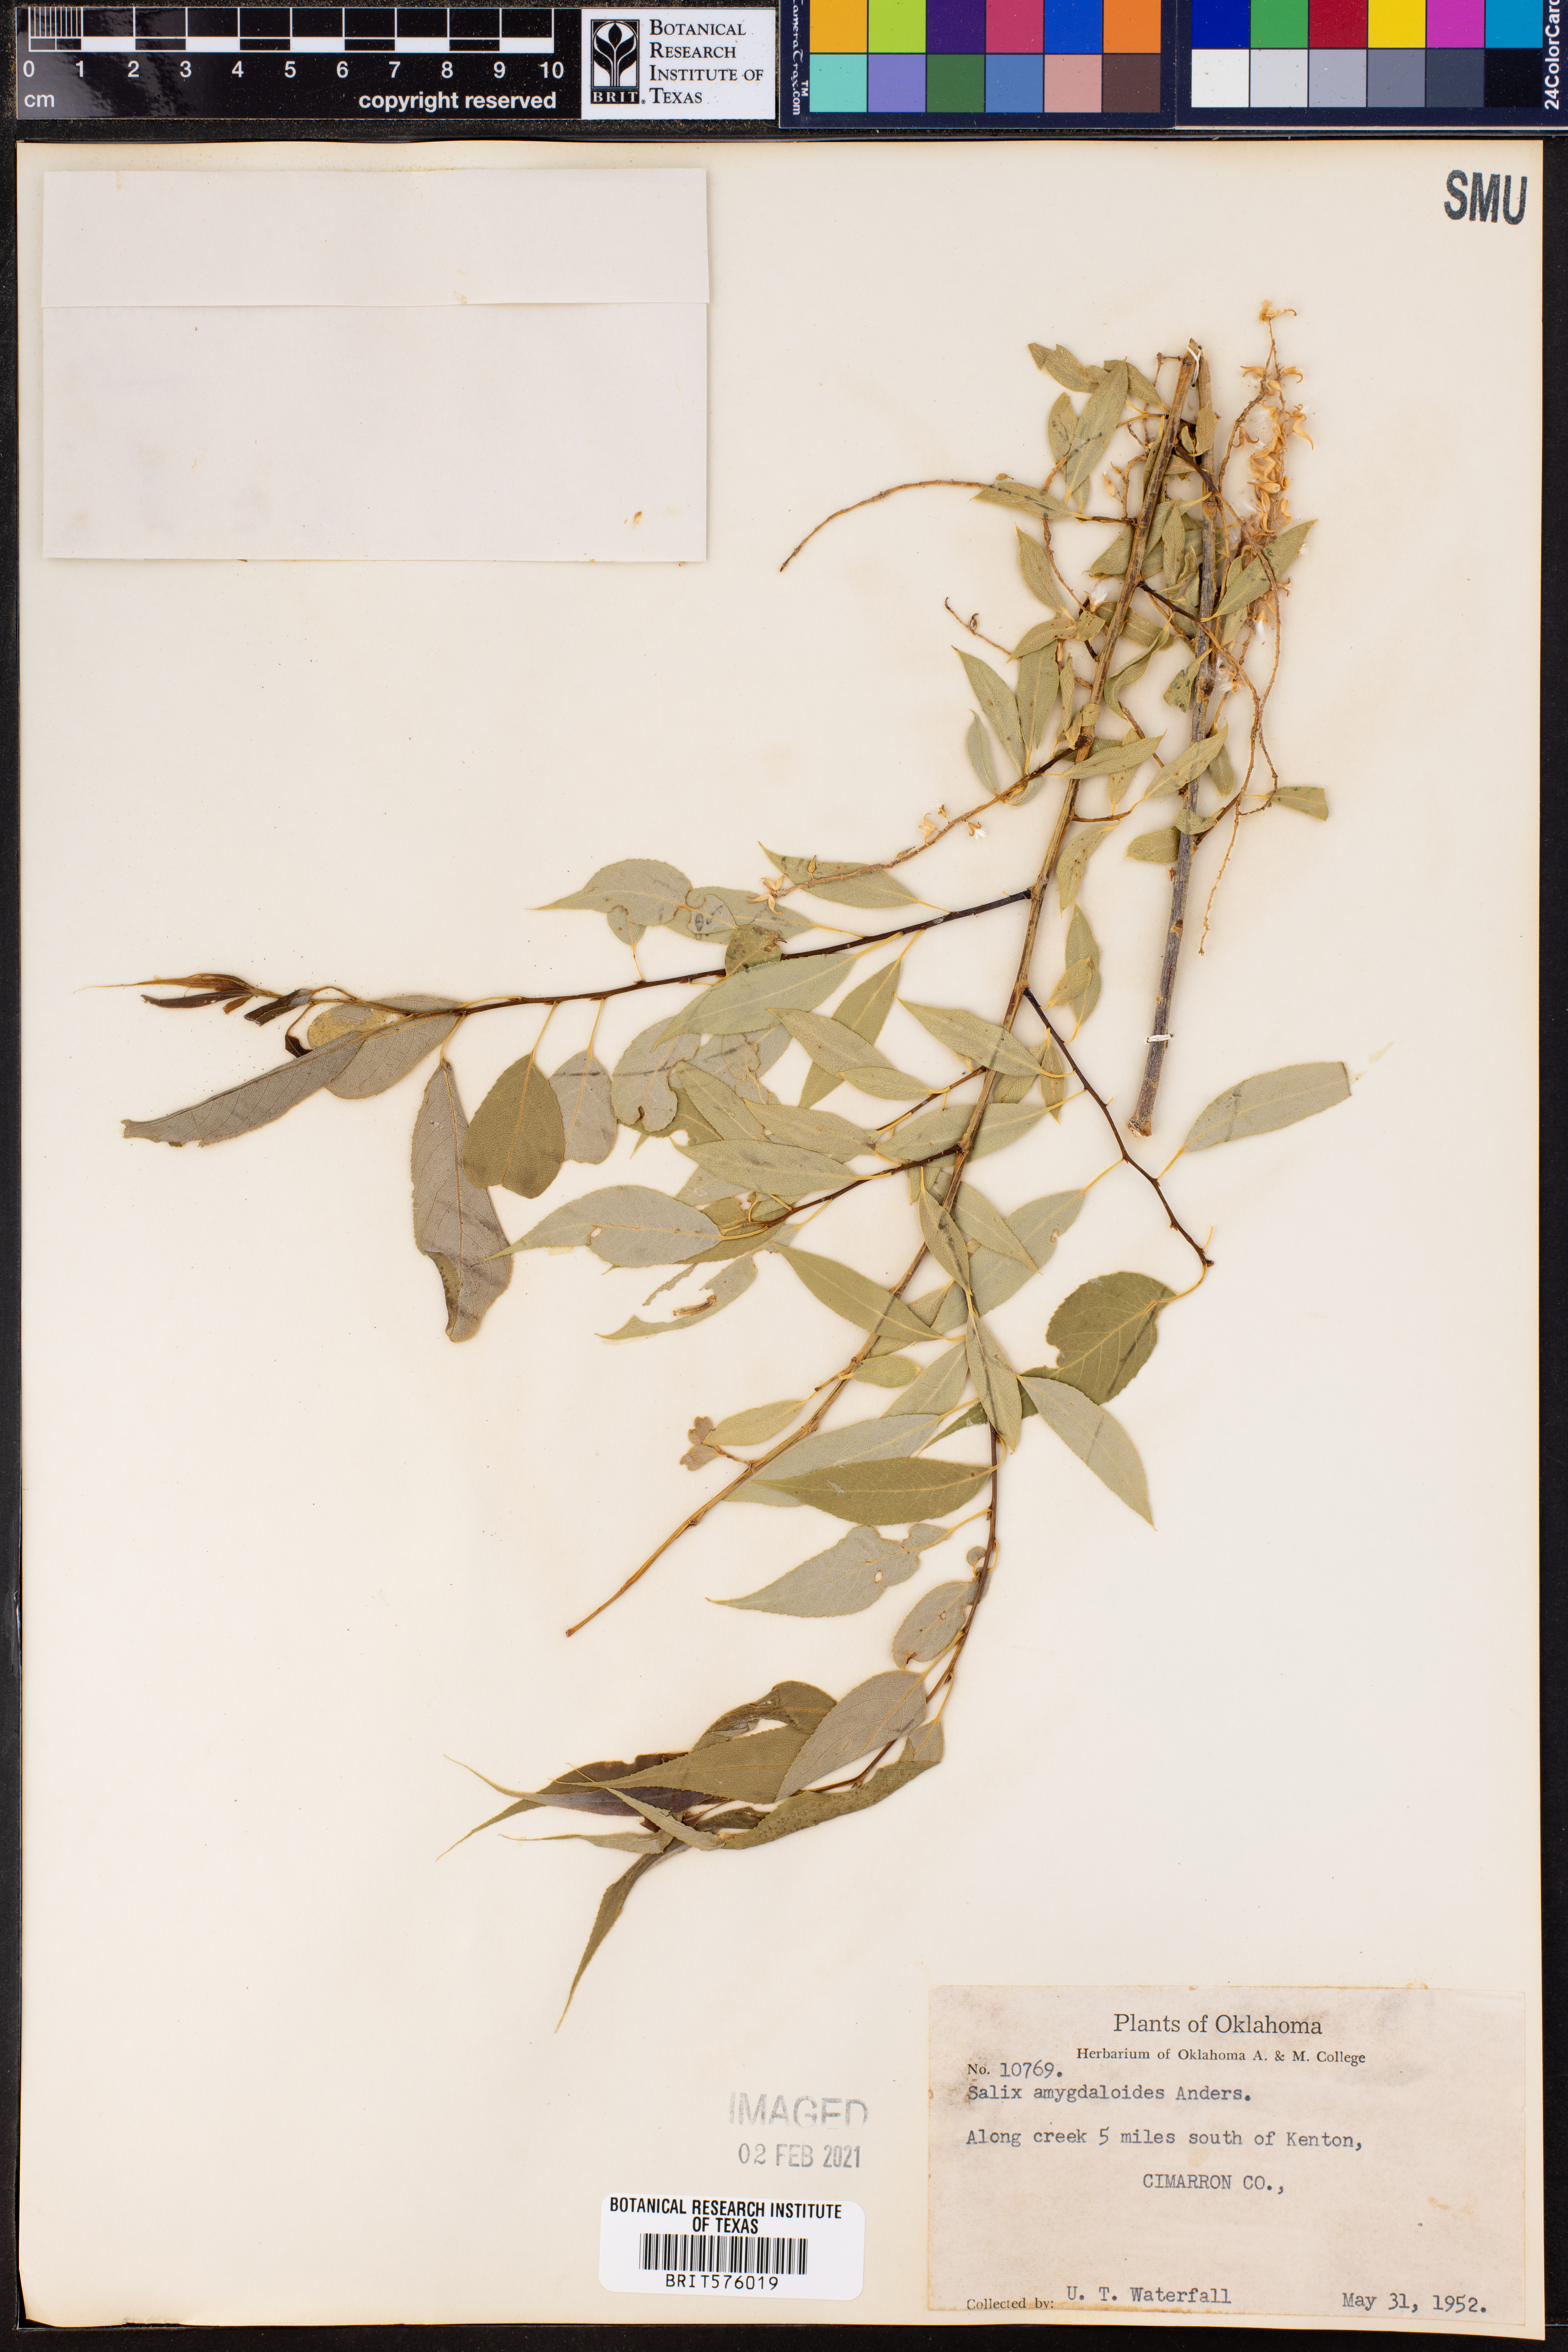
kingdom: Plantae
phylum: Tracheophyta
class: Magnoliopsida
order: Malpighiales
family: Salicaceae
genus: Salix
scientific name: Salix amygdaloides
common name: Peach leaf willow
